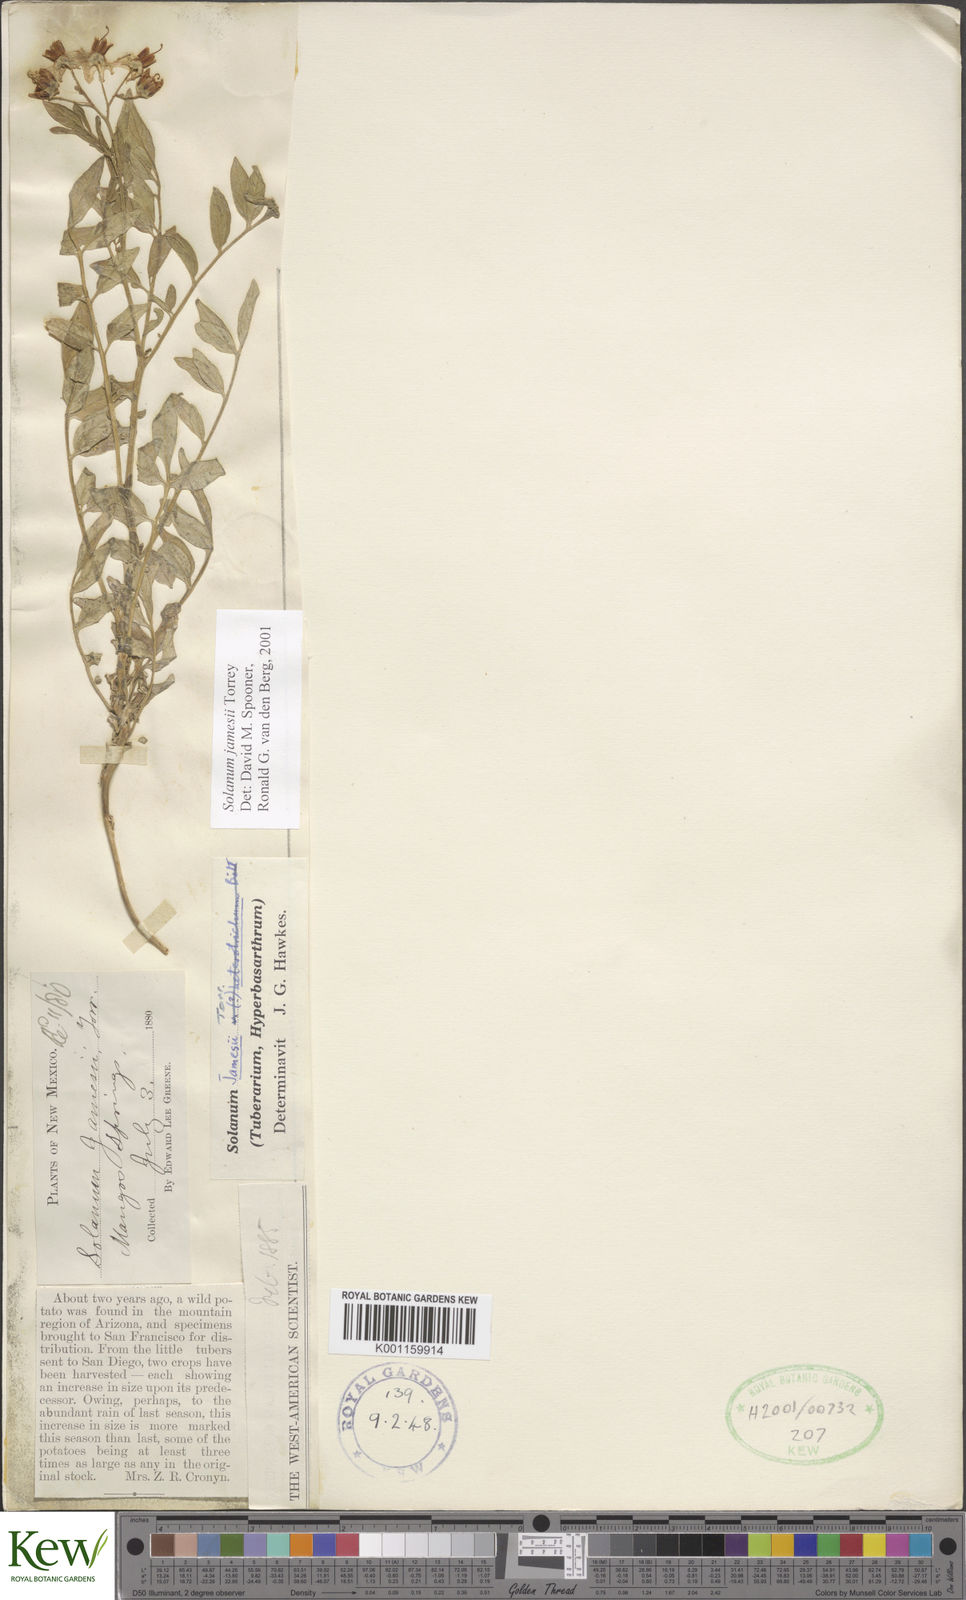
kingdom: Plantae
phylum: Tracheophyta
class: Magnoliopsida
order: Solanales
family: Solanaceae
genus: Solanum
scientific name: Solanum jamesii
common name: Wild potato
